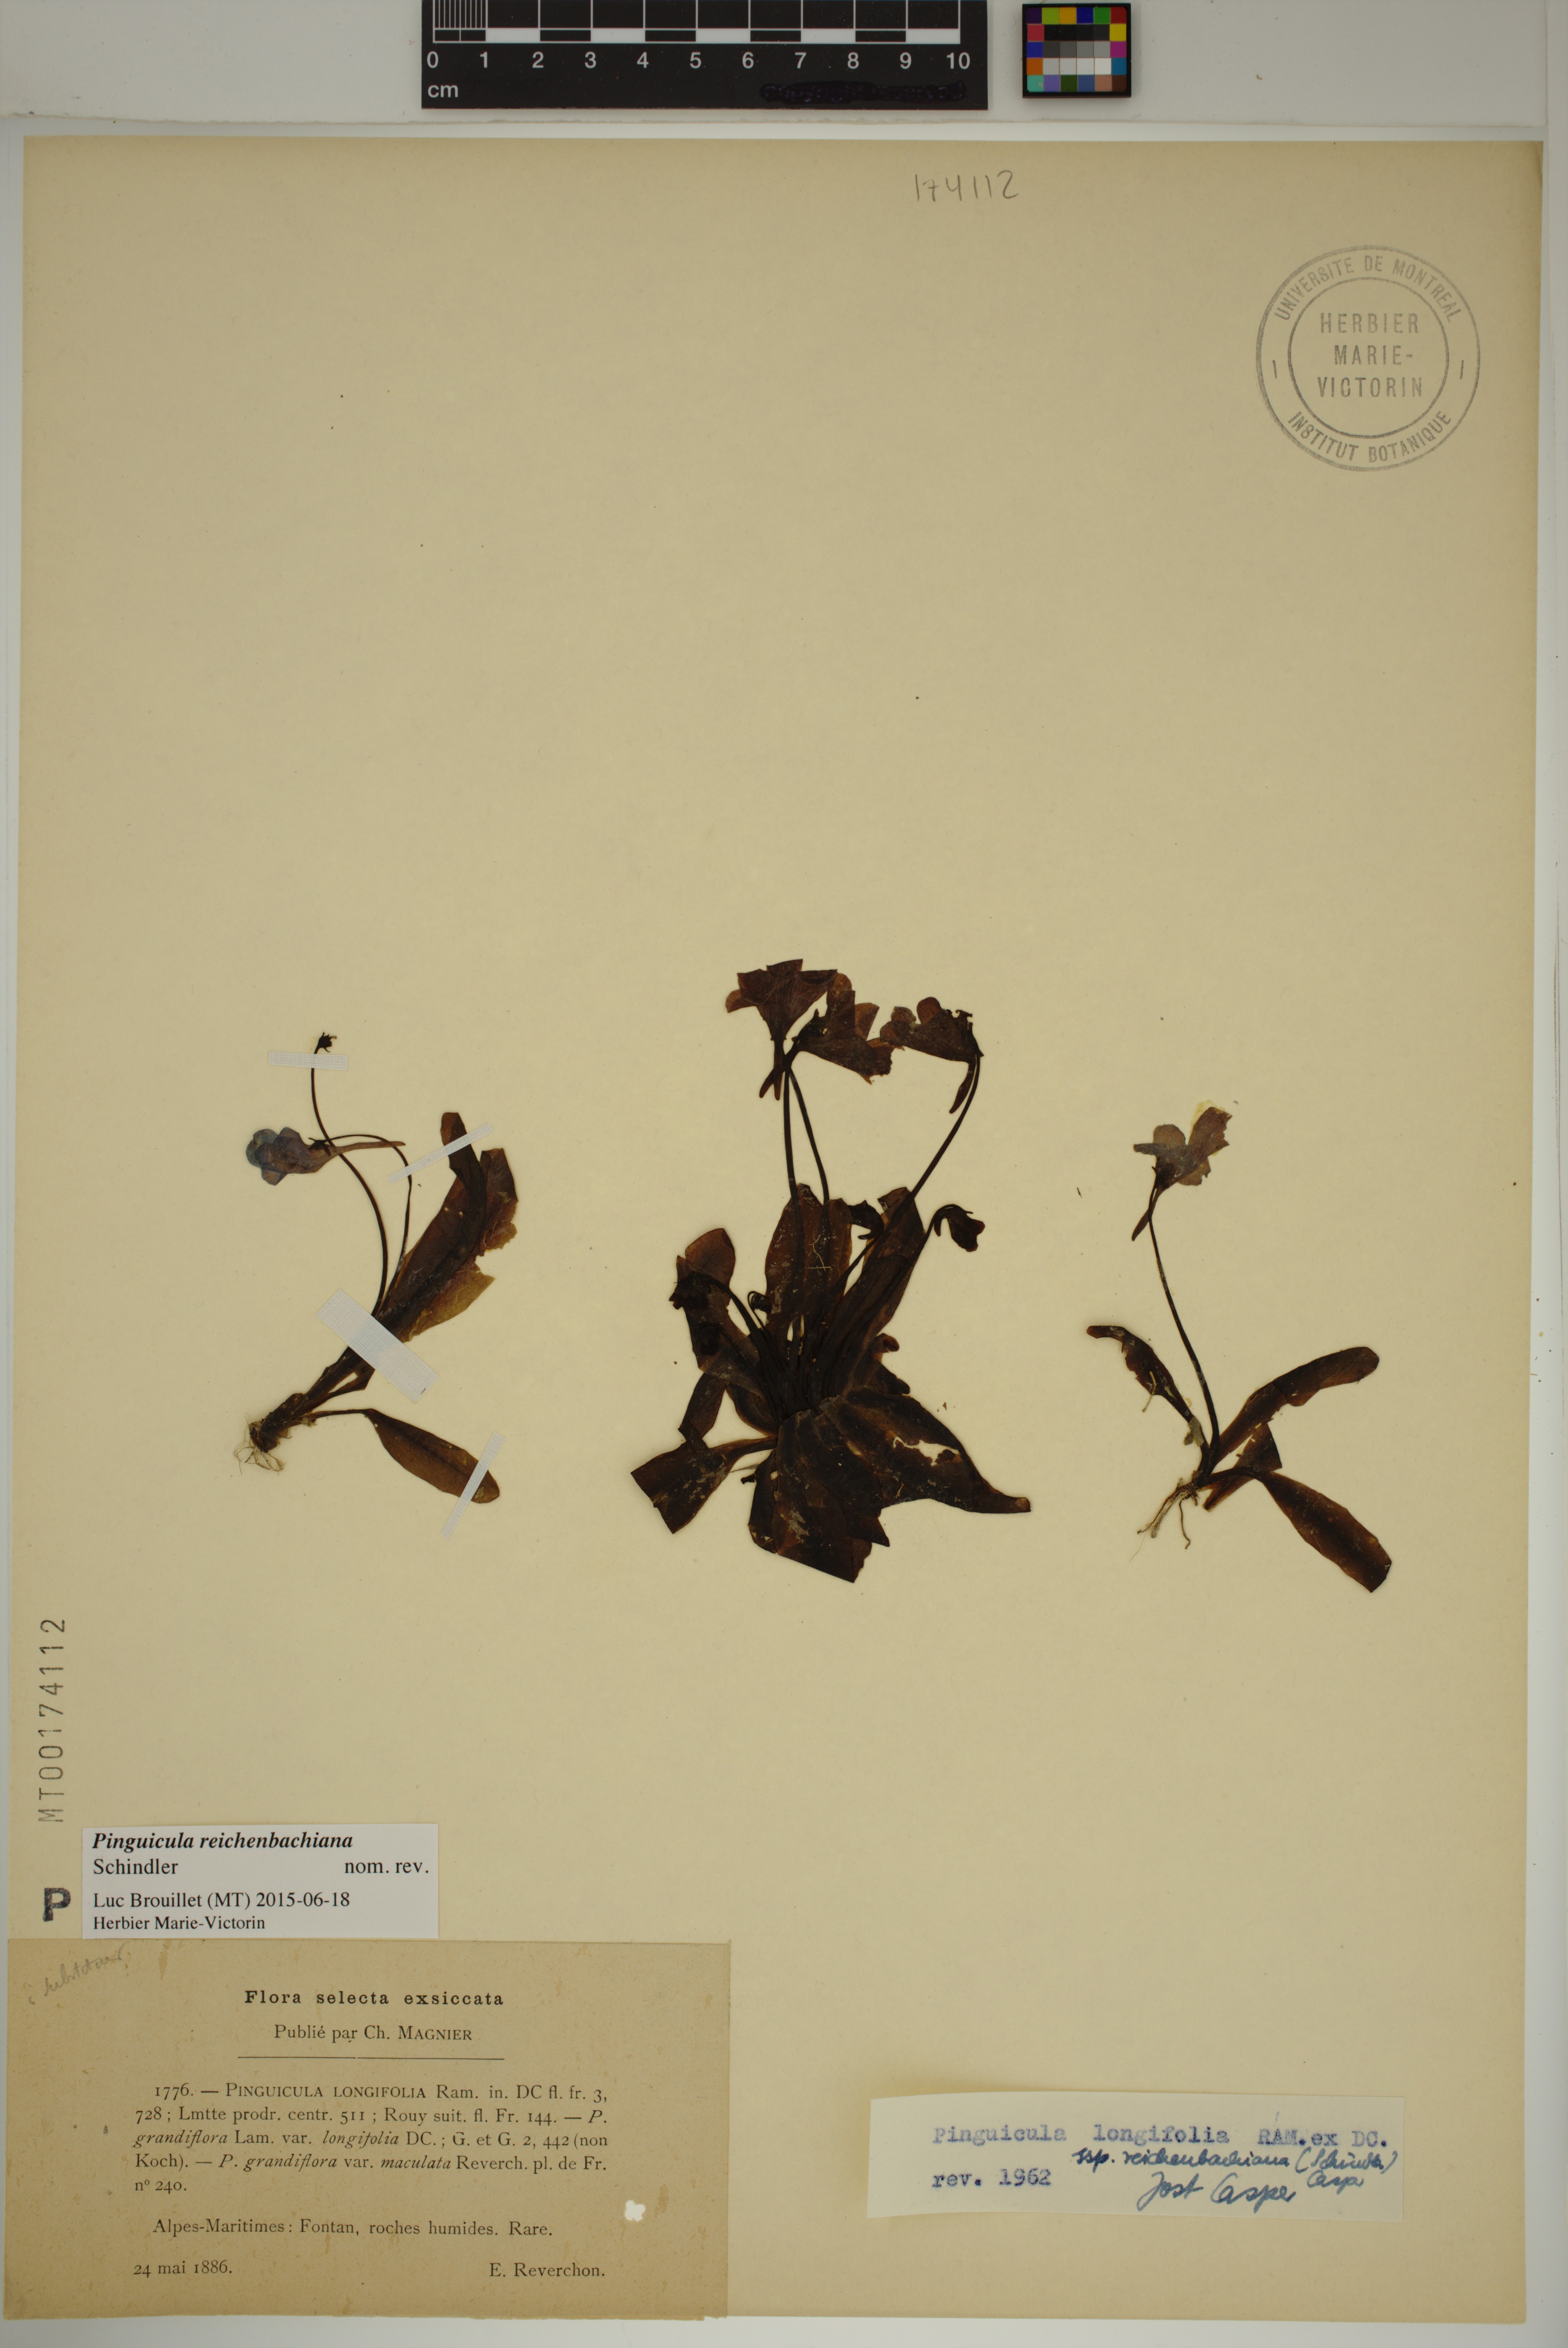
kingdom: Plantae
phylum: Tracheophyta
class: Magnoliopsida
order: Lamiales
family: Lentibulariaceae
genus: Pinguicula
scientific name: Pinguicula longifolia
